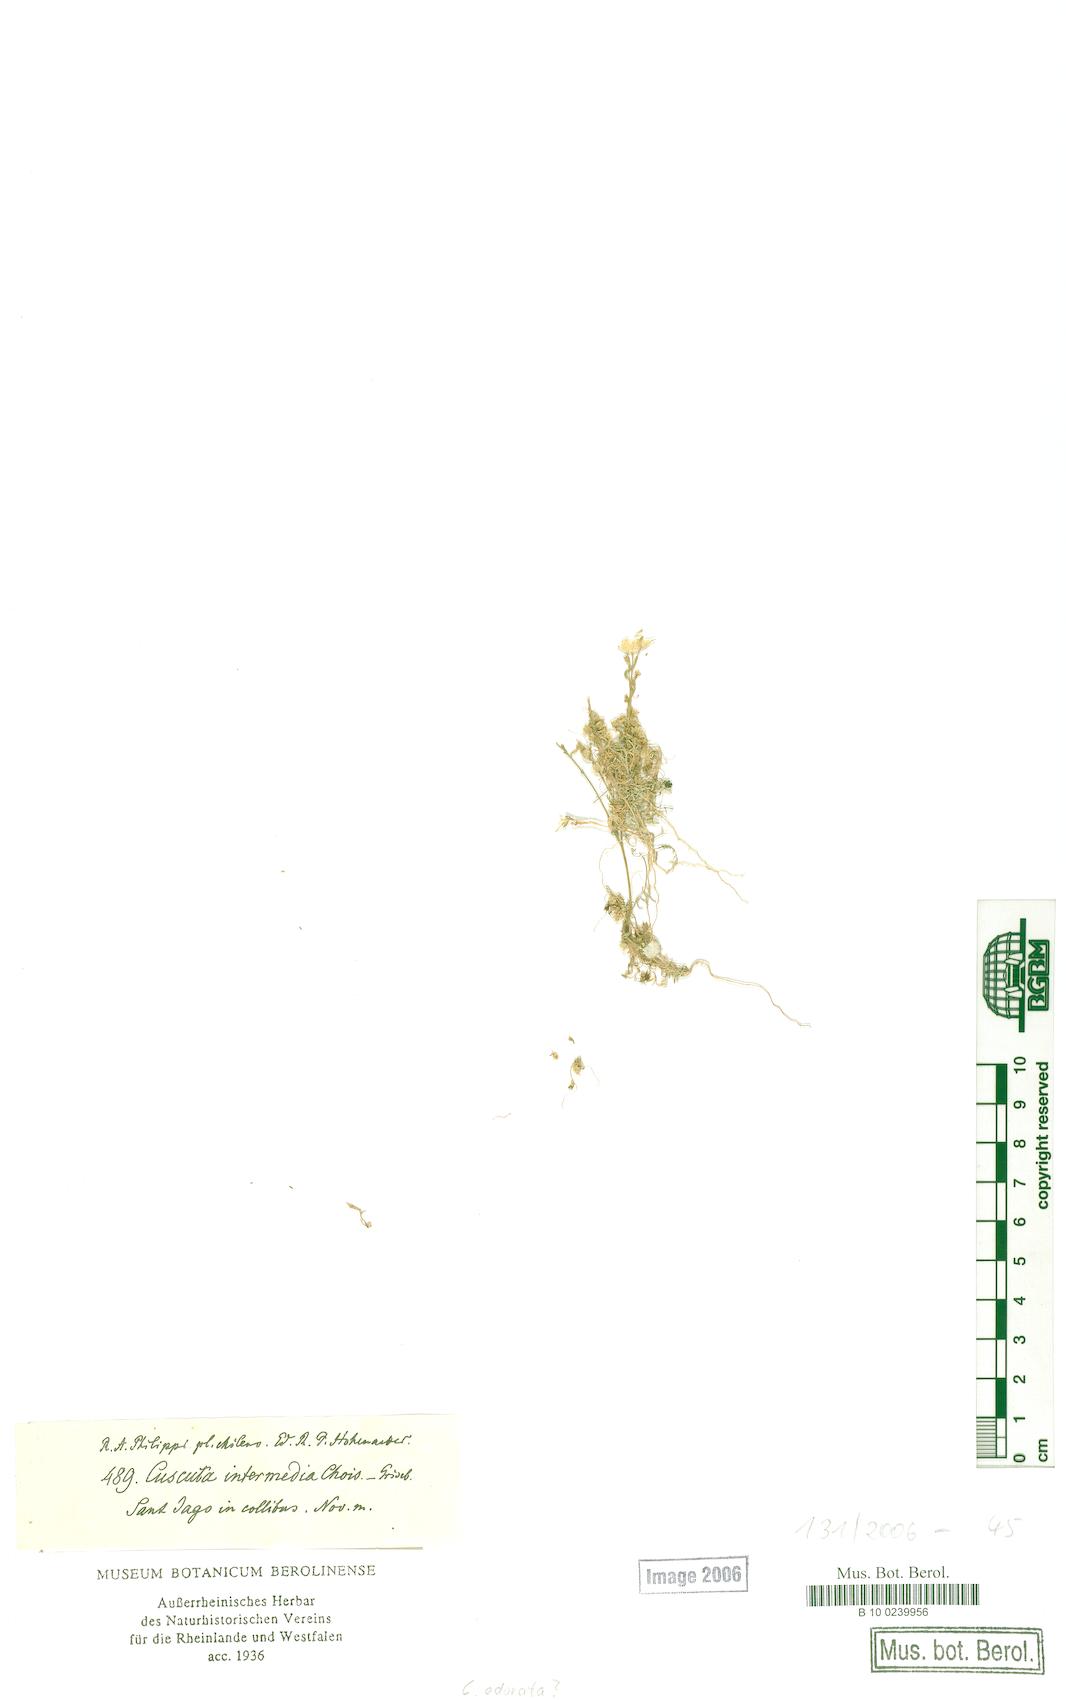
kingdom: Plantae
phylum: Tracheophyta
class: Magnoliopsida
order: Solanales
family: Convolvulaceae
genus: Cuscuta
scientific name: Cuscuta odorata
